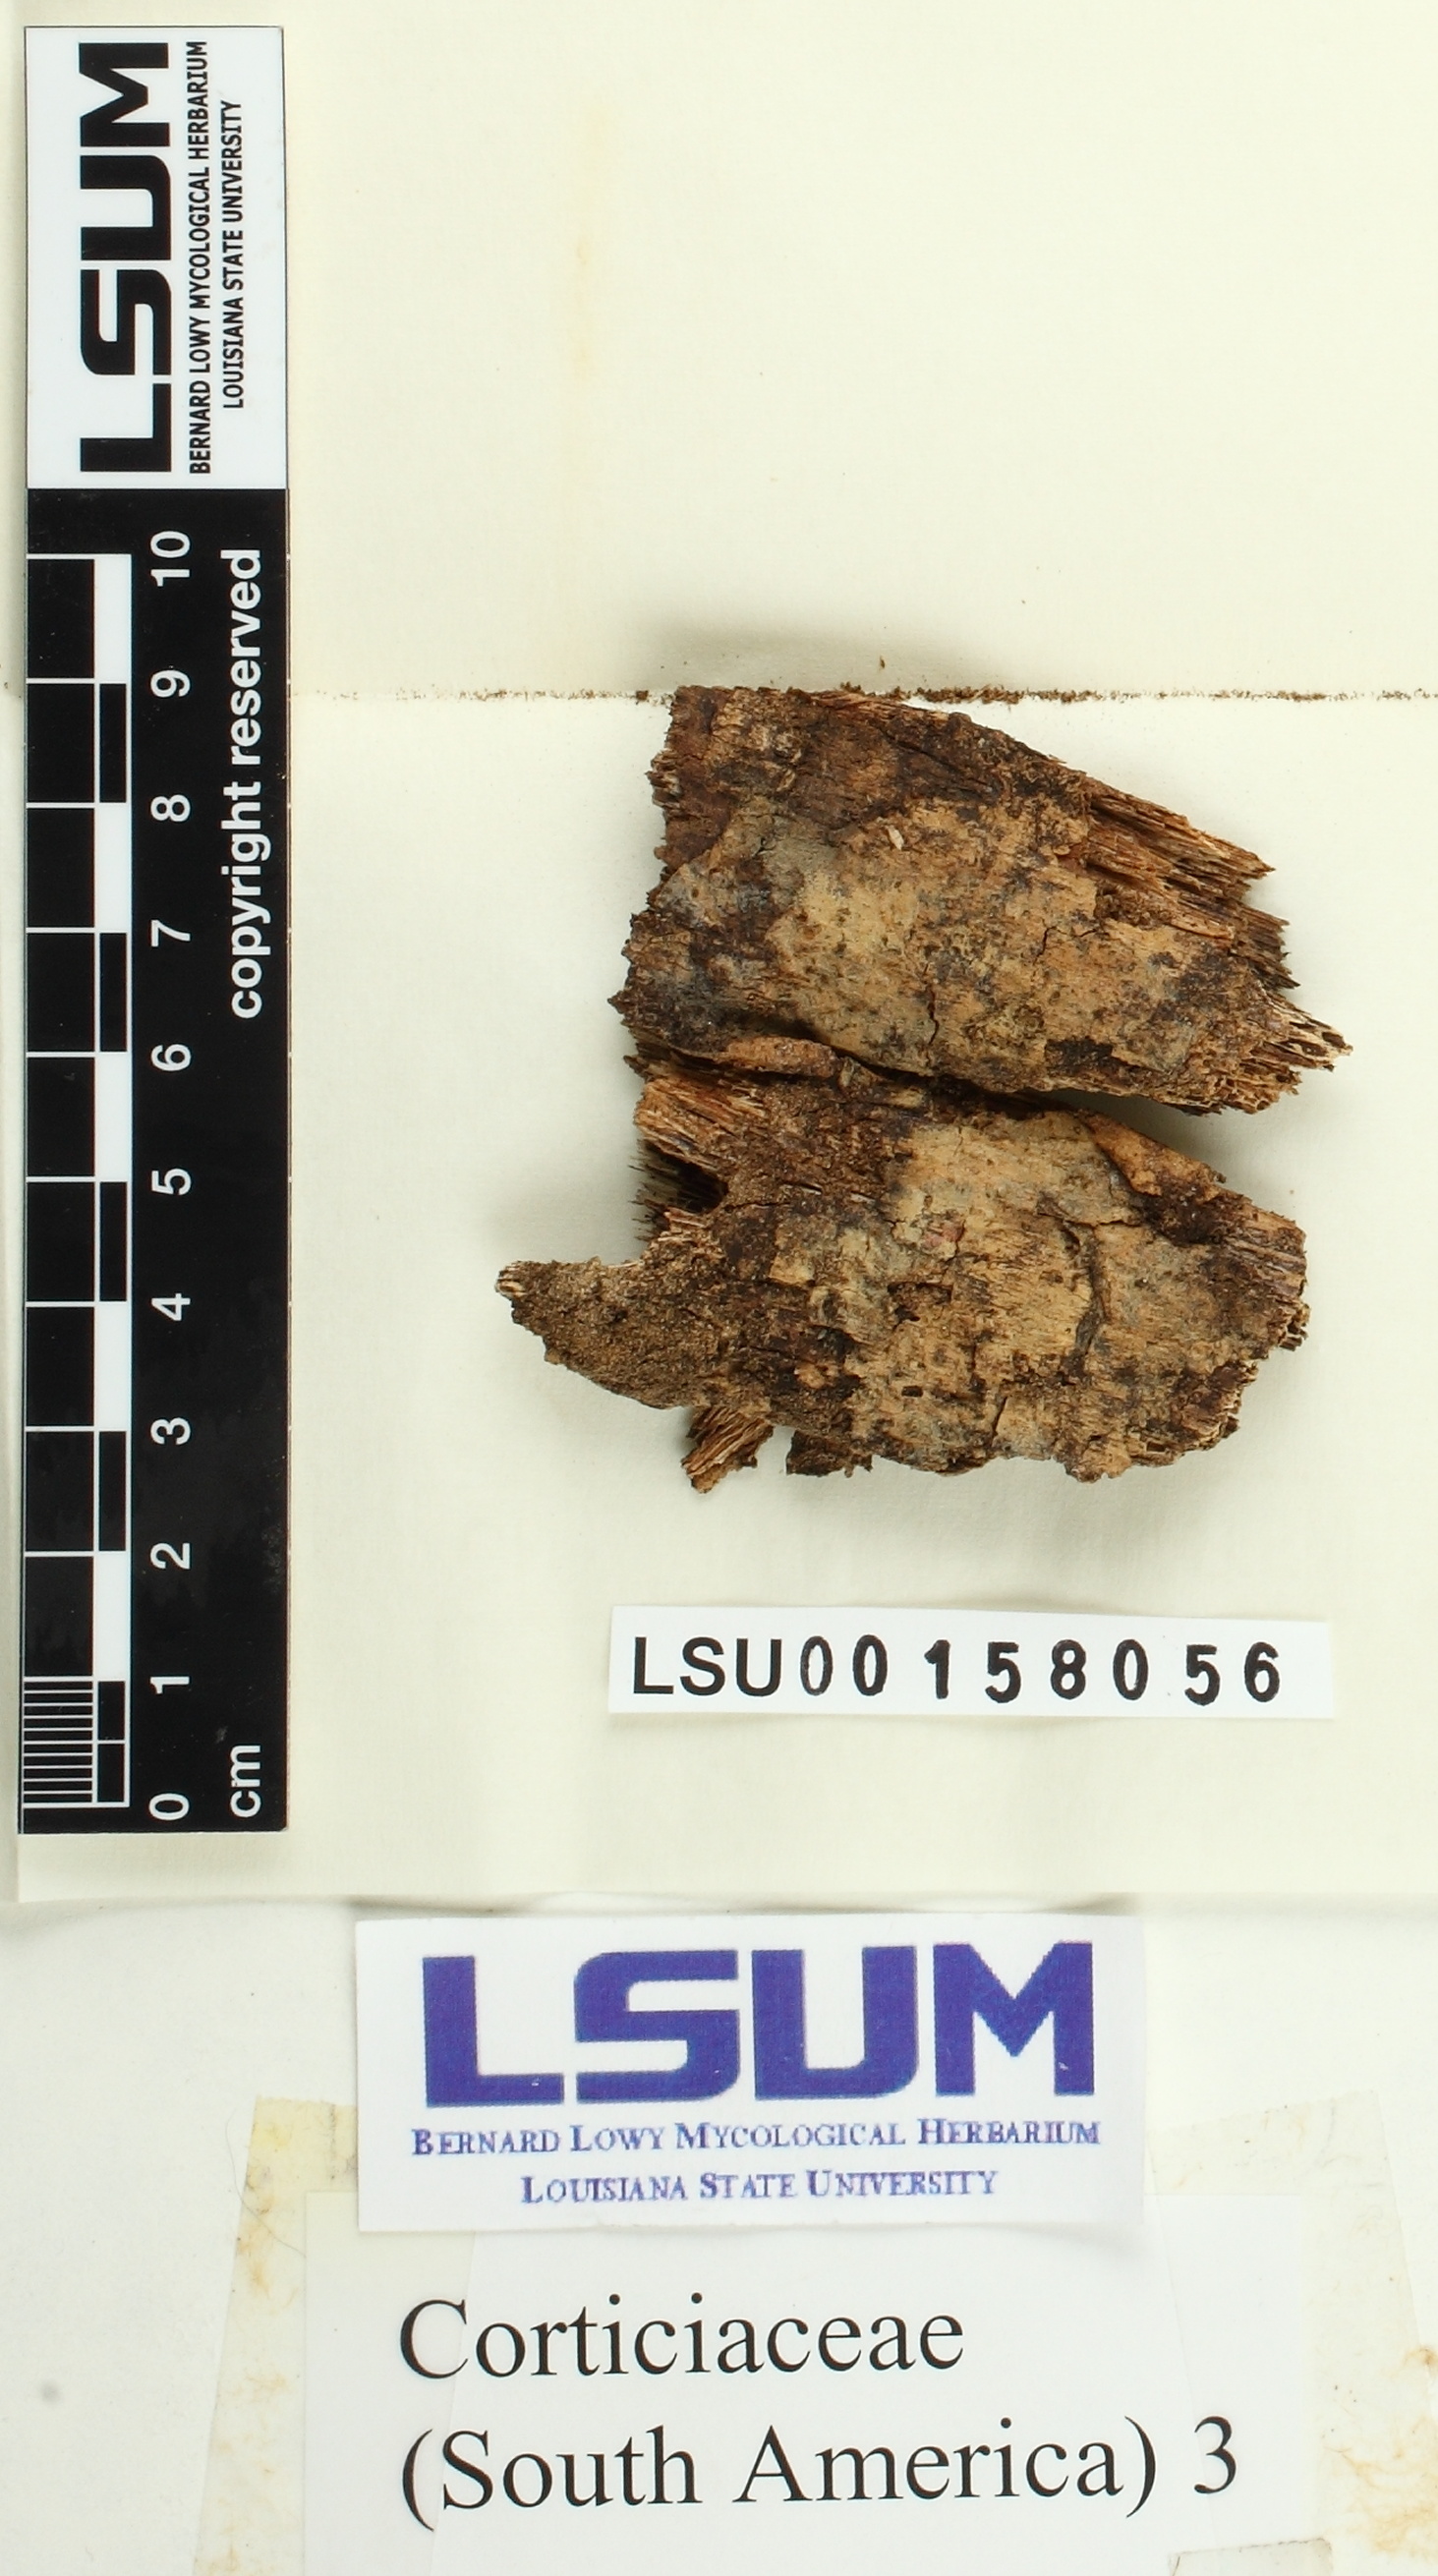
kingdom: Fungi
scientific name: Fungi
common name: Fungi
